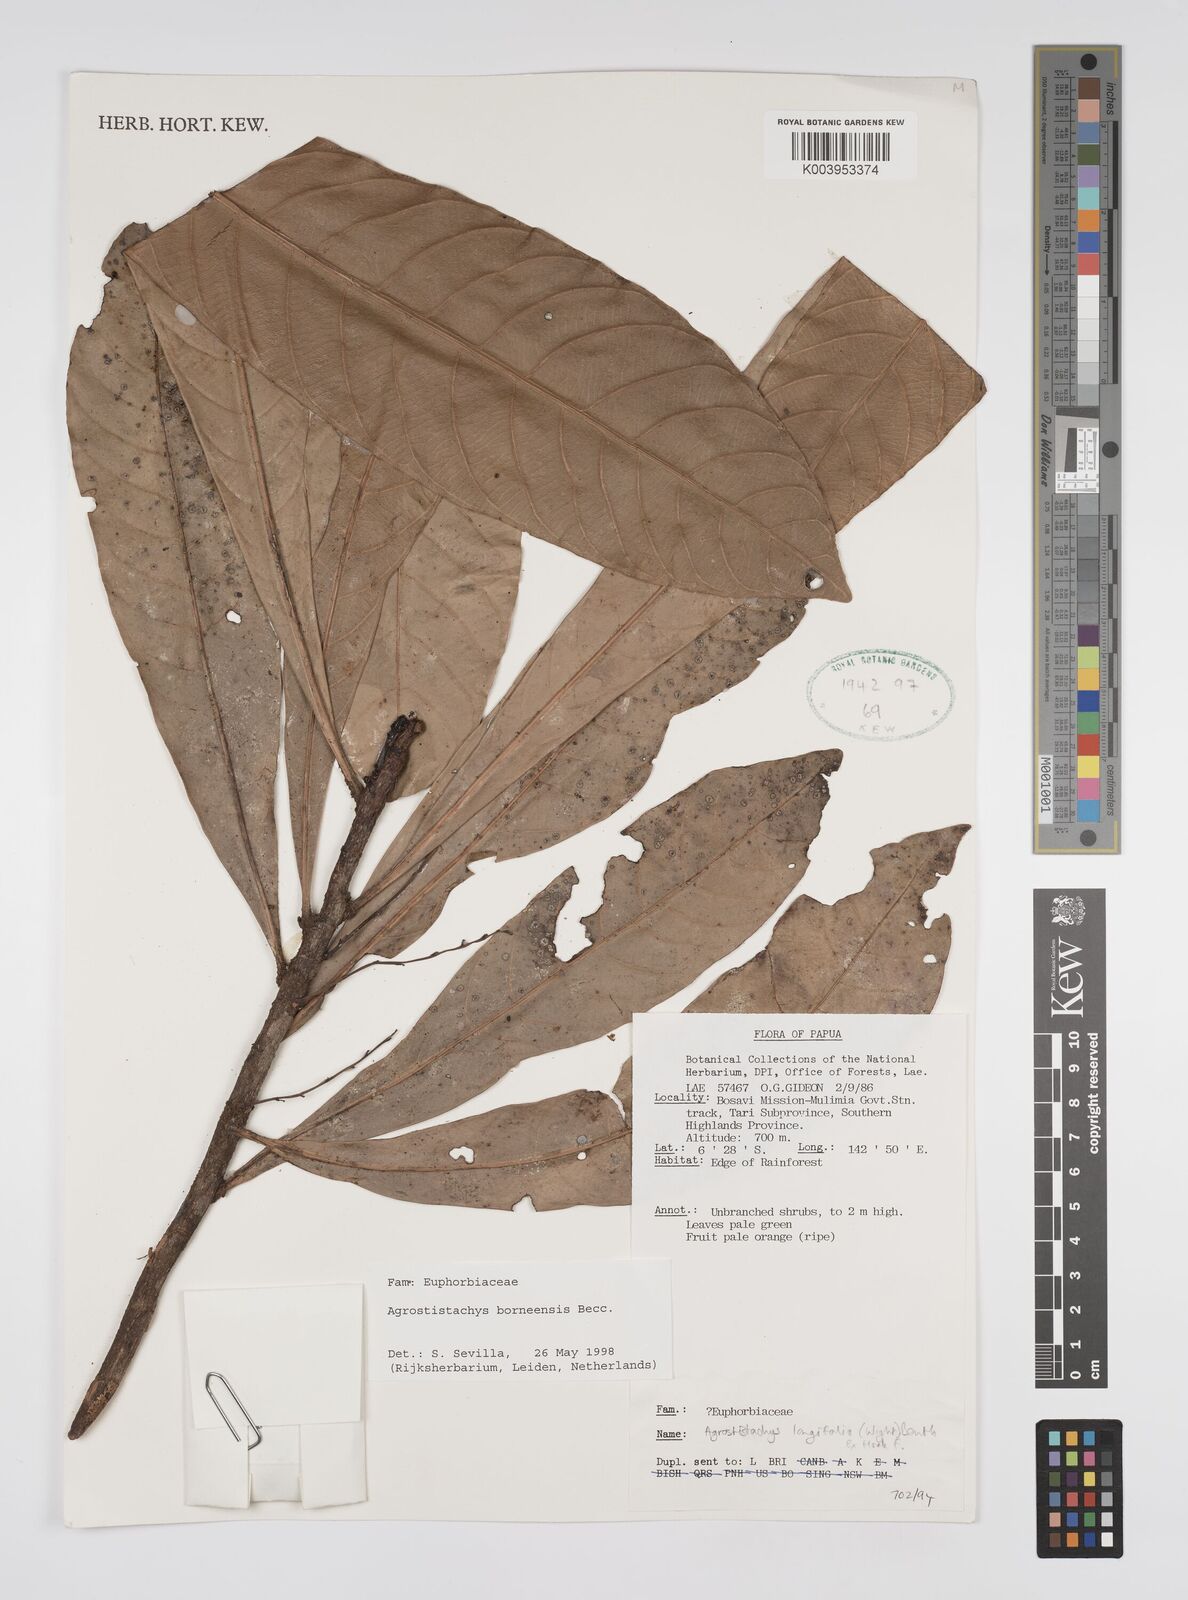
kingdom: Plantae
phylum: Tracheophyta
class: Magnoliopsida
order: Malpighiales
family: Euphorbiaceae
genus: Agrostistachys
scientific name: Agrostistachys
